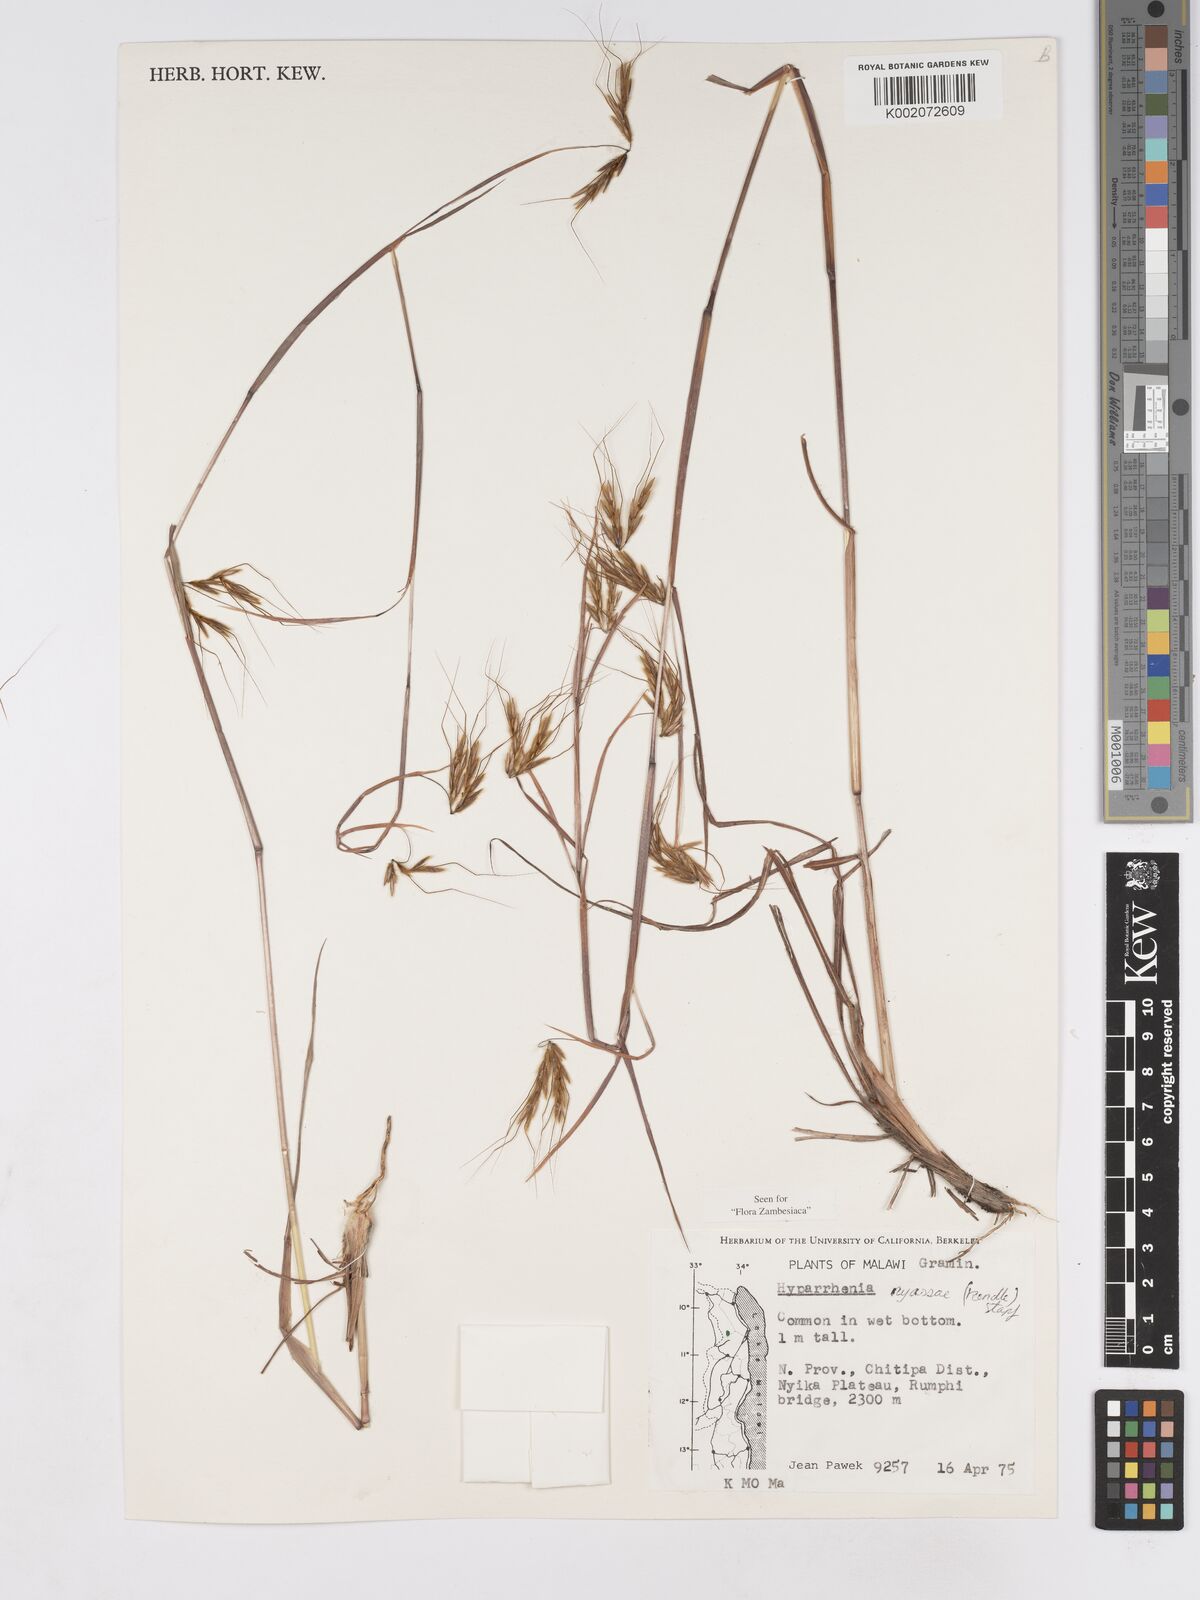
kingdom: Plantae
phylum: Tracheophyta
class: Liliopsida
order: Poales
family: Poaceae
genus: Hyparrhenia
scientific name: Hyparrhenia nyassae
